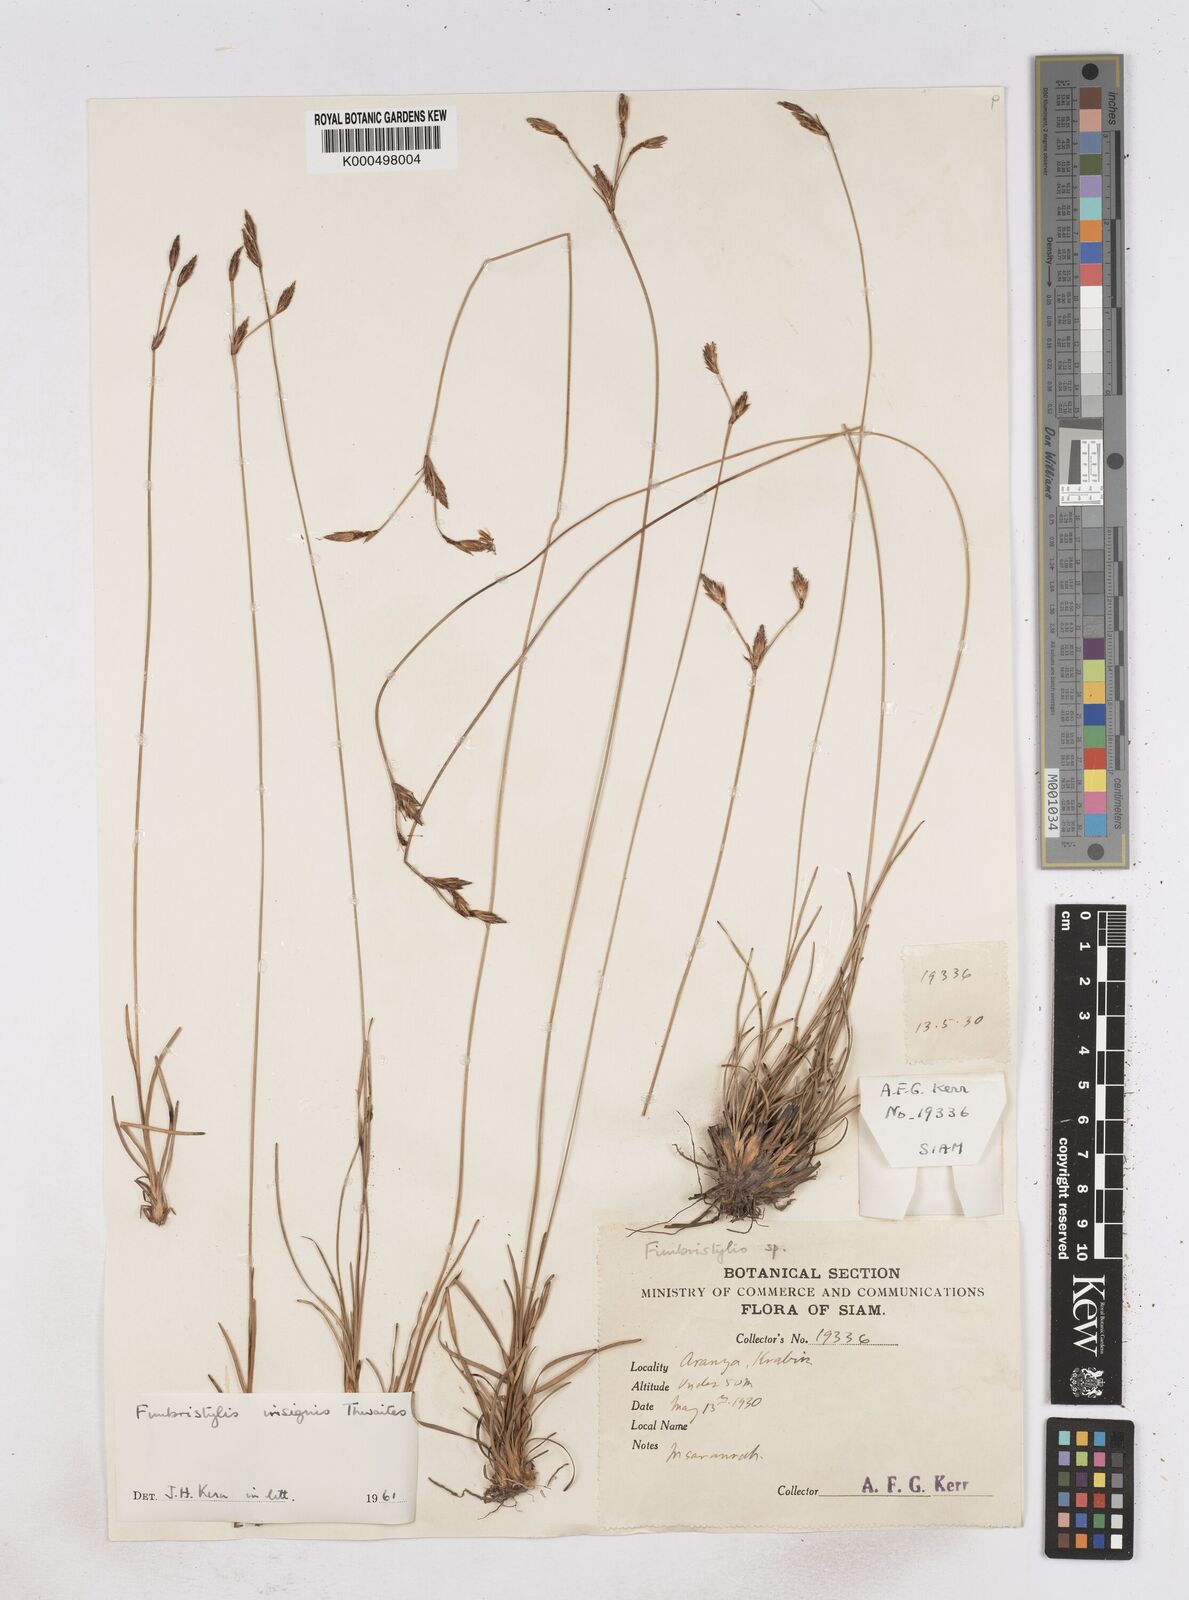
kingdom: Plantae
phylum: Tracheophyta
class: Liliopsida
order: Poales
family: Cyperaceae
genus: Fimbristylis
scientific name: Fimbristylis insignis
